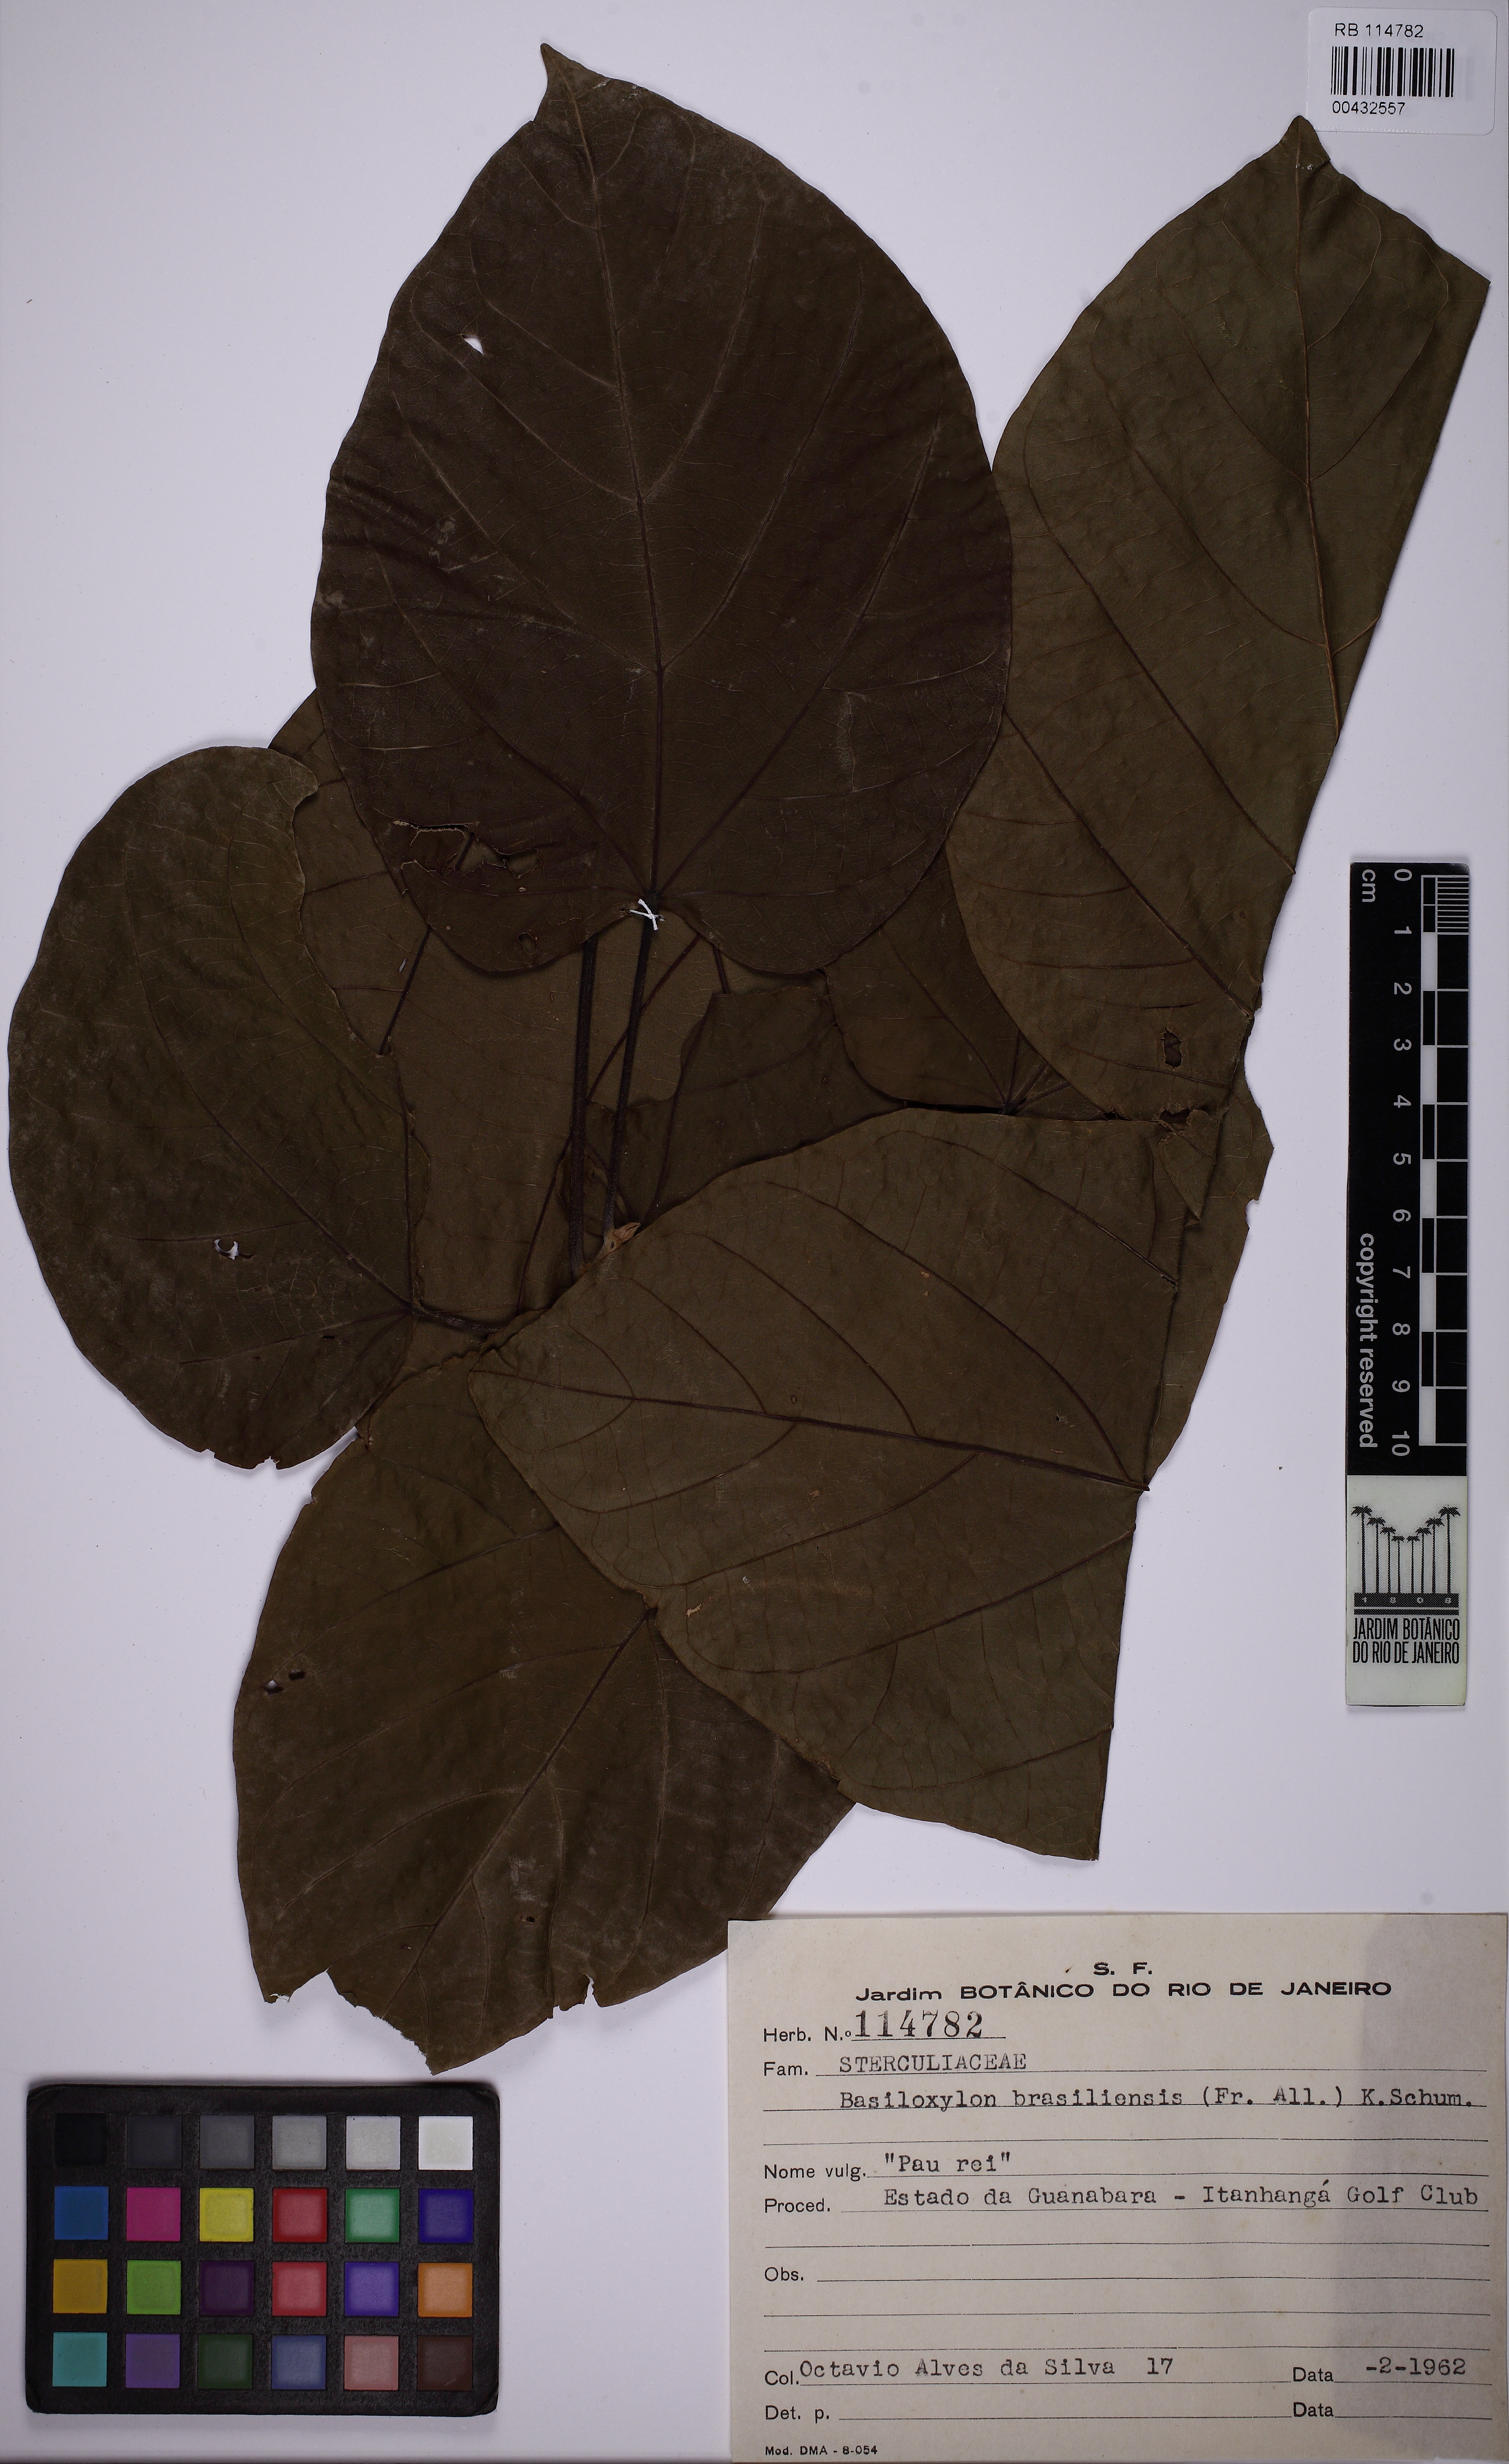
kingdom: Plantae
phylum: Tracheophyta
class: Magnoliopsida
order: Malvales
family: Malvaceae
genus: Pterygota
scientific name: Pterygota brasiliensis
